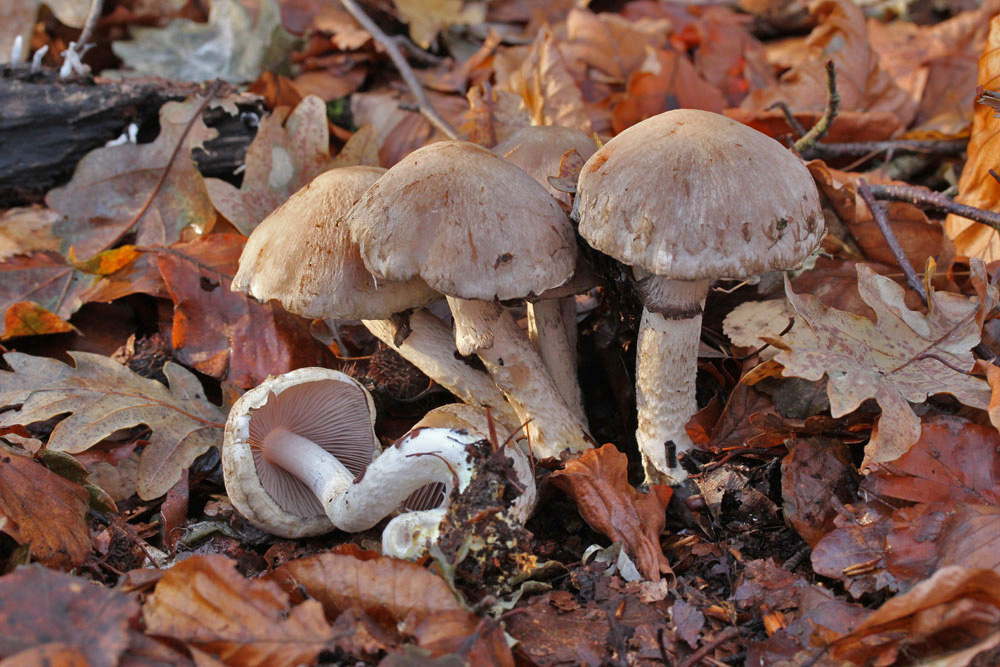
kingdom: Fungi
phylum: Basidiomycota
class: Agaricomycetes
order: Agaricales
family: Psathyrellaceae
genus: Psathyrella
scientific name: Psathyrella cotonea
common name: skællet mørkhat
